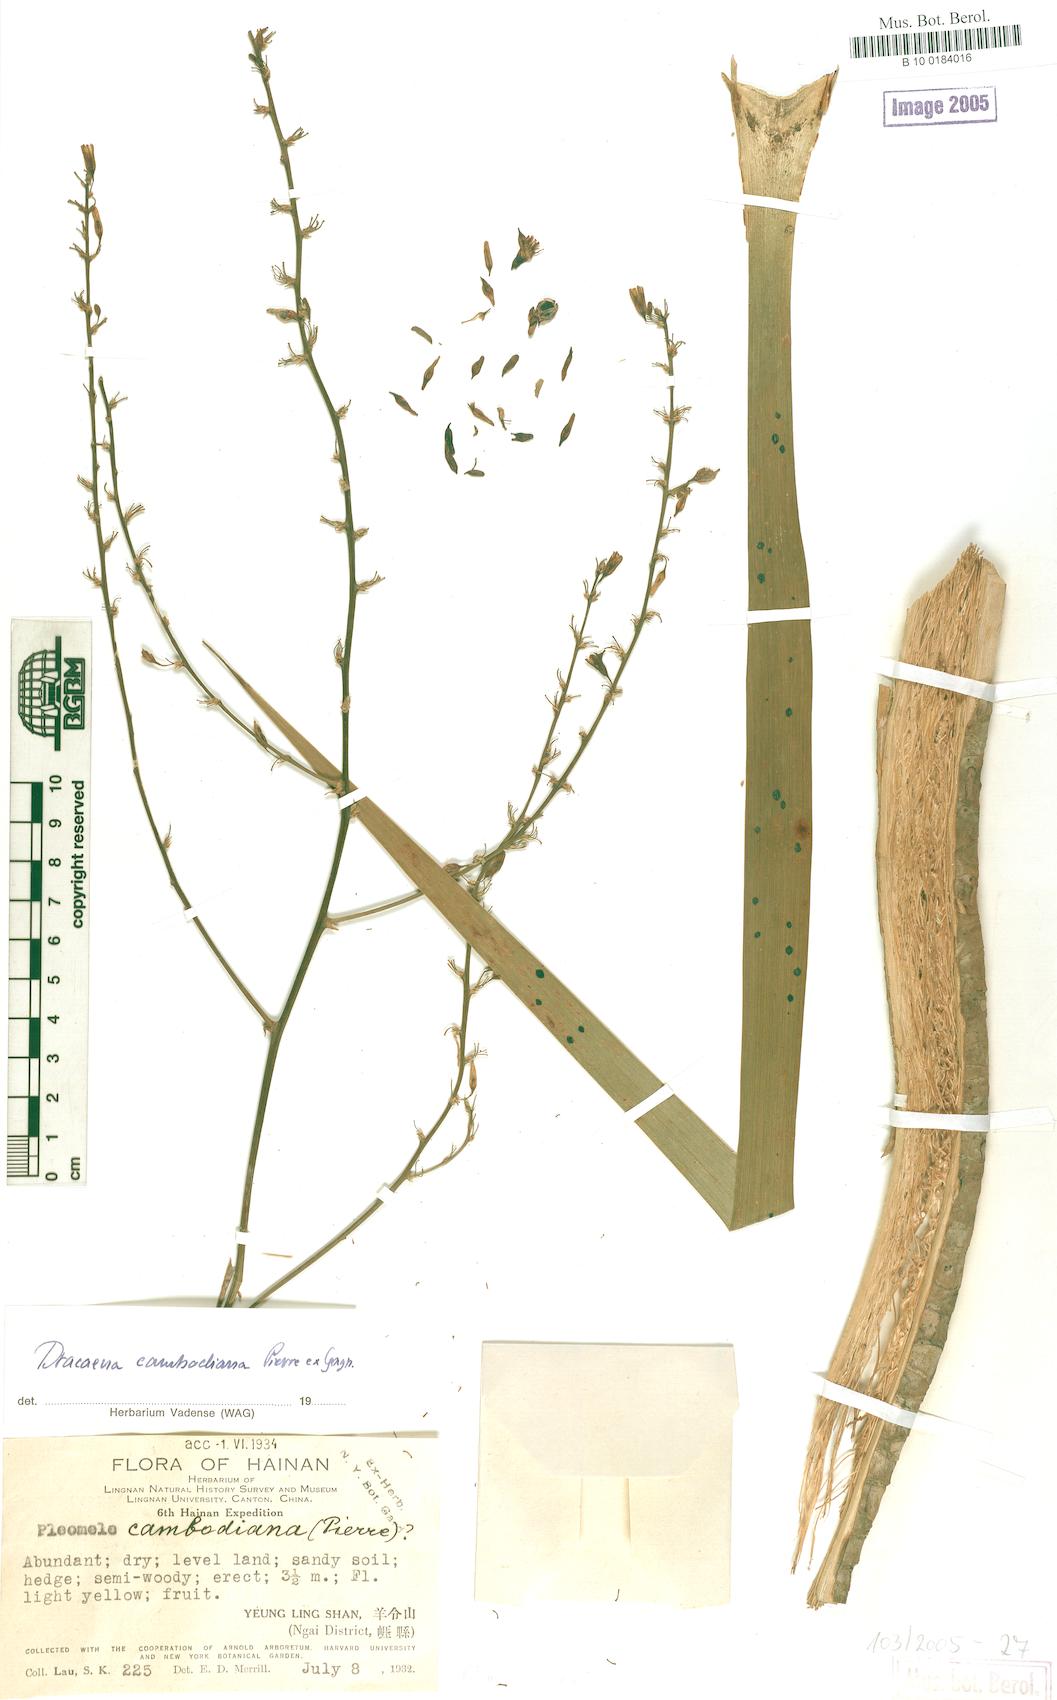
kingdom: Plantae
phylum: Tracheophyta
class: Liliopsida
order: Asparagales
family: Asparagaceae
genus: Dracaena
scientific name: Dracaena cambodiana
